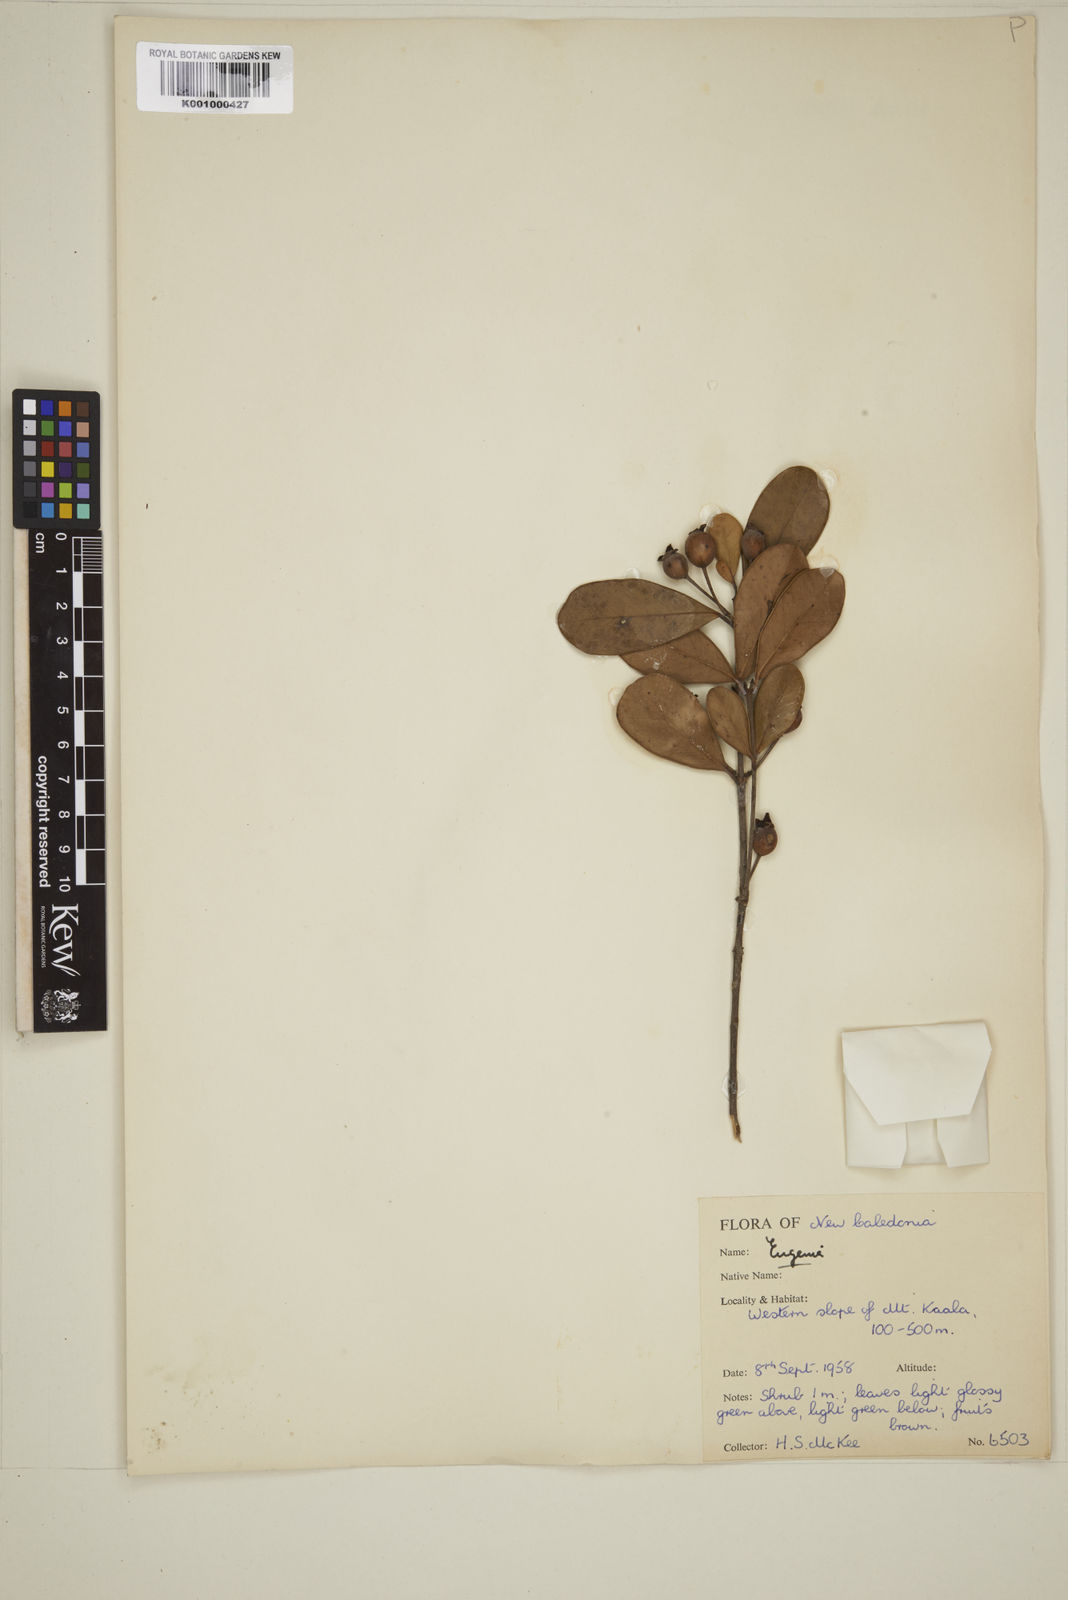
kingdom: Plantae
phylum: Tracheophyta
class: Magnoliopsida
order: Myrtales
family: Myrtaceae
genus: Eugenia
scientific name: Eugenia
